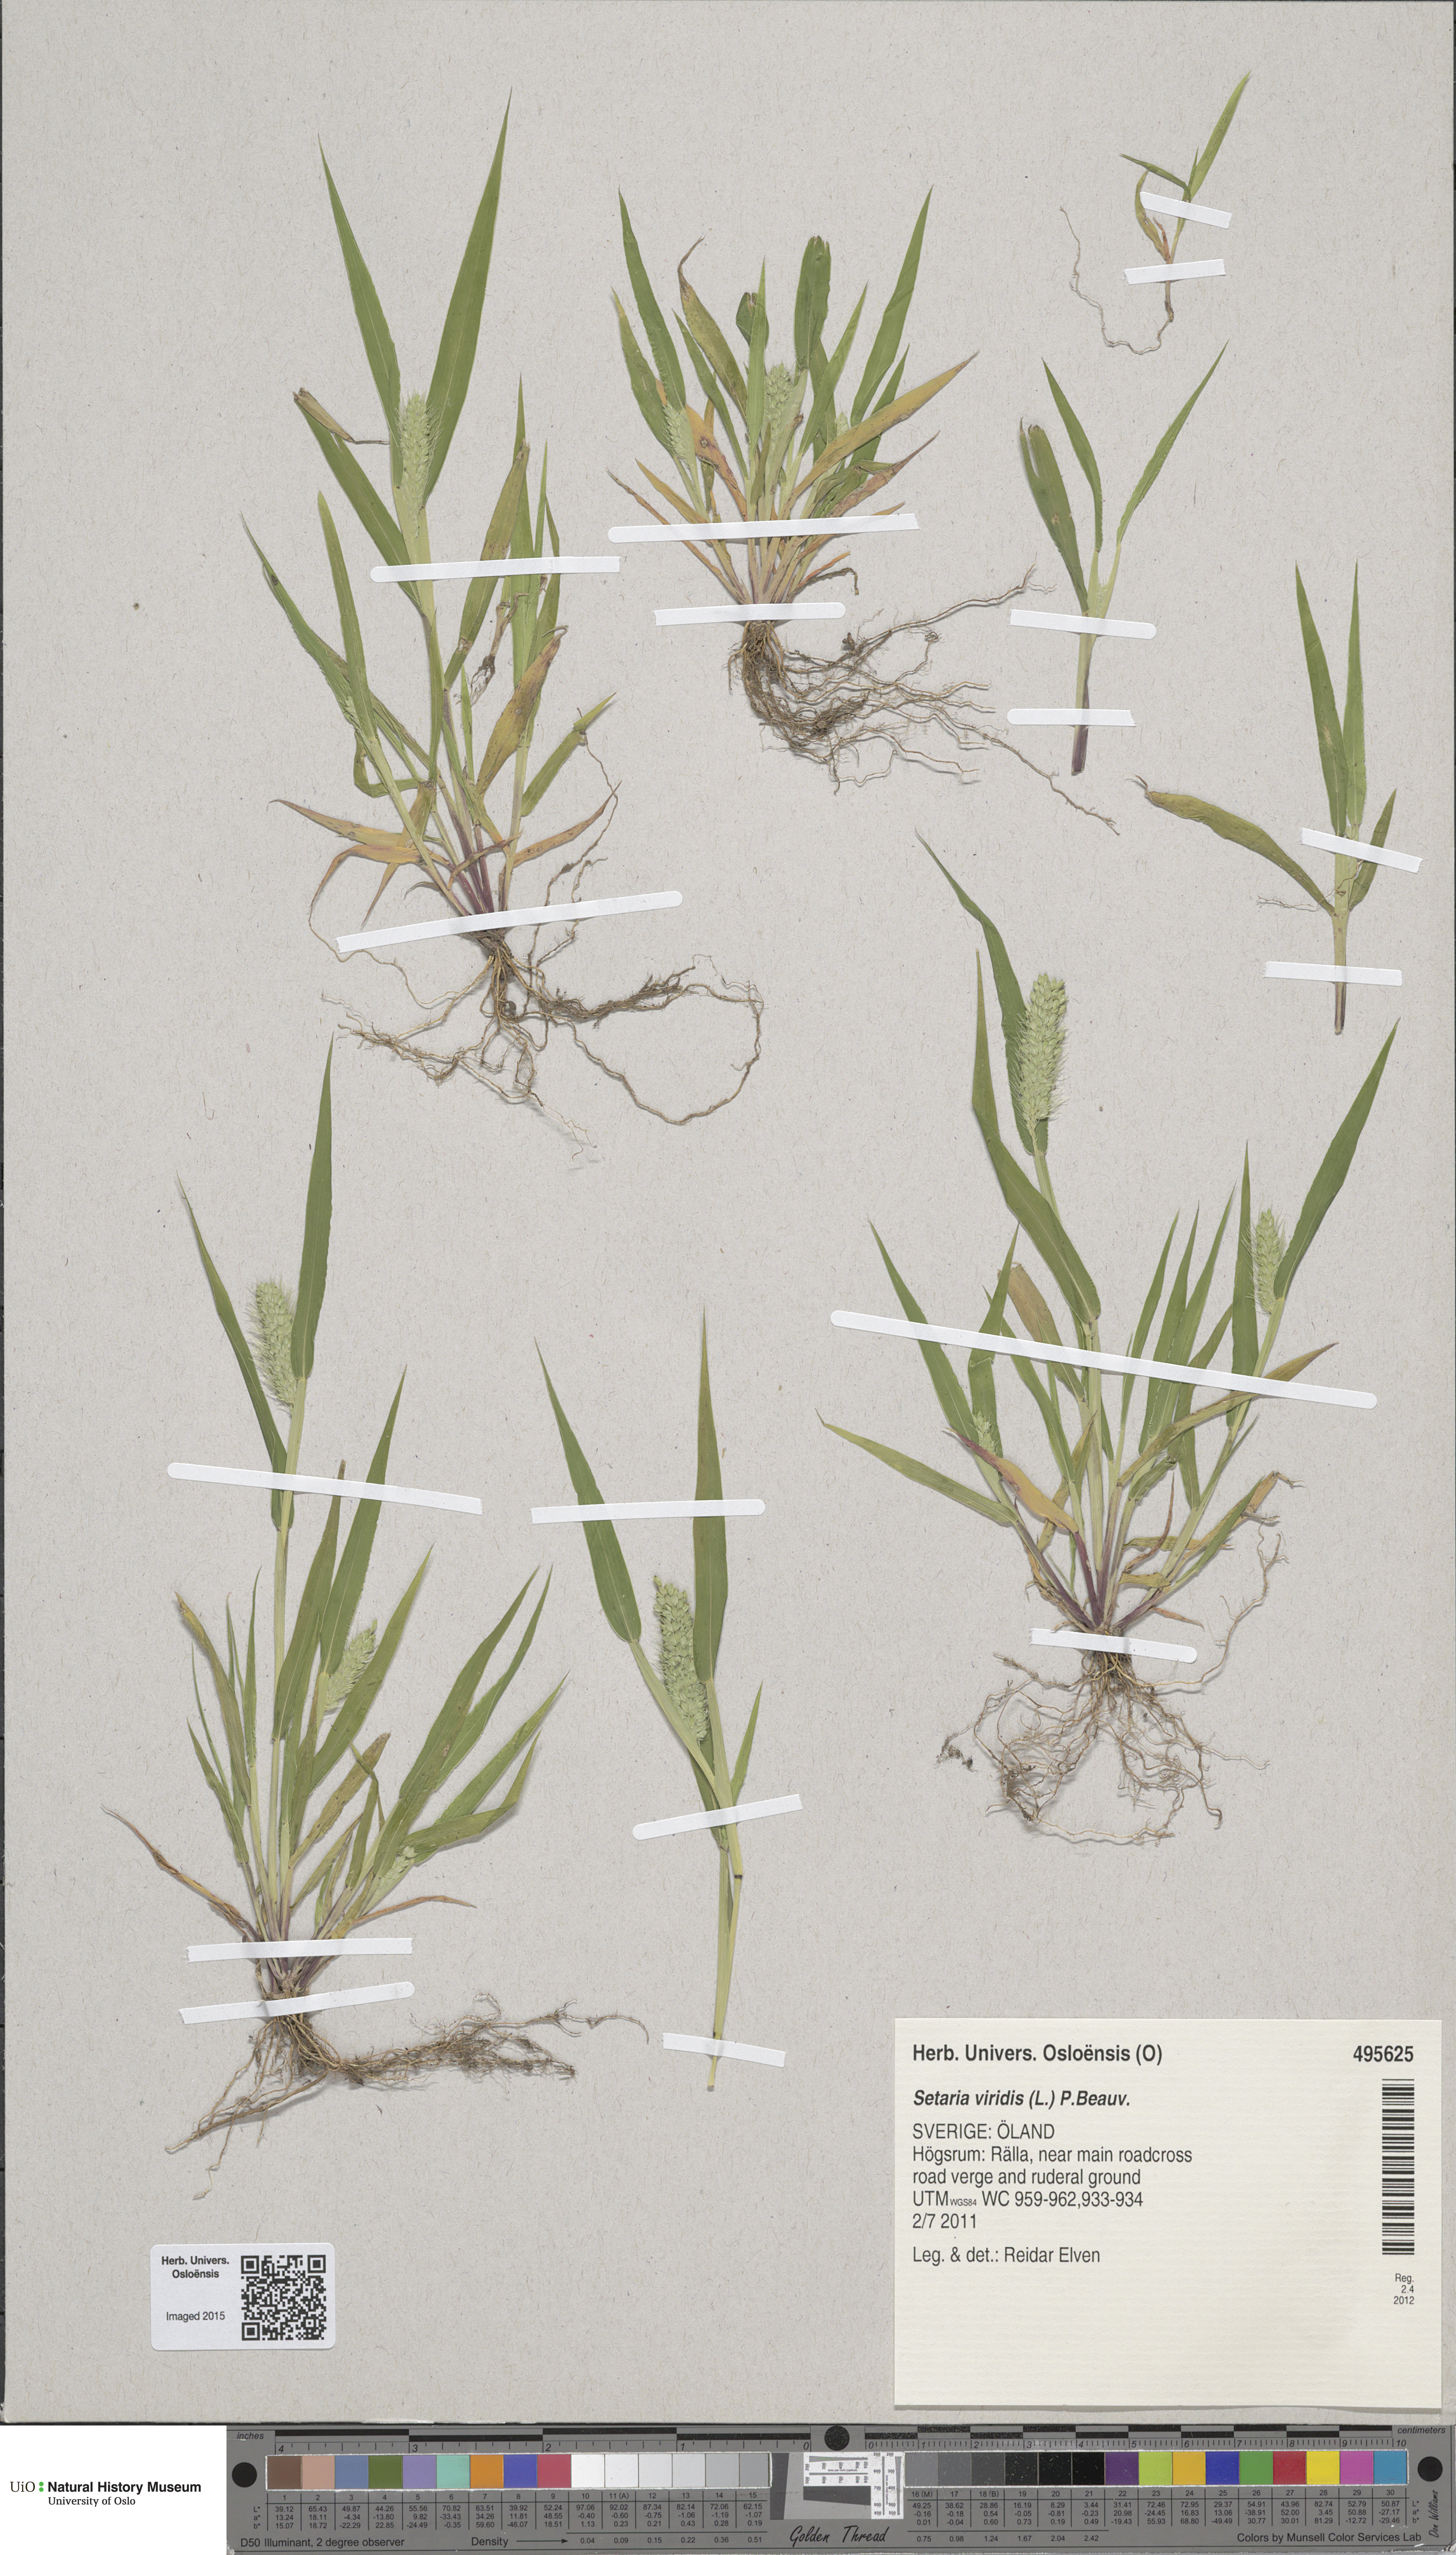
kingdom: Plantae
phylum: Tracheophyta
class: Liliopsida
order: Poales
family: Poaceae
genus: Setaria
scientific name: Setaria viridis
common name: Green bristlegrass
